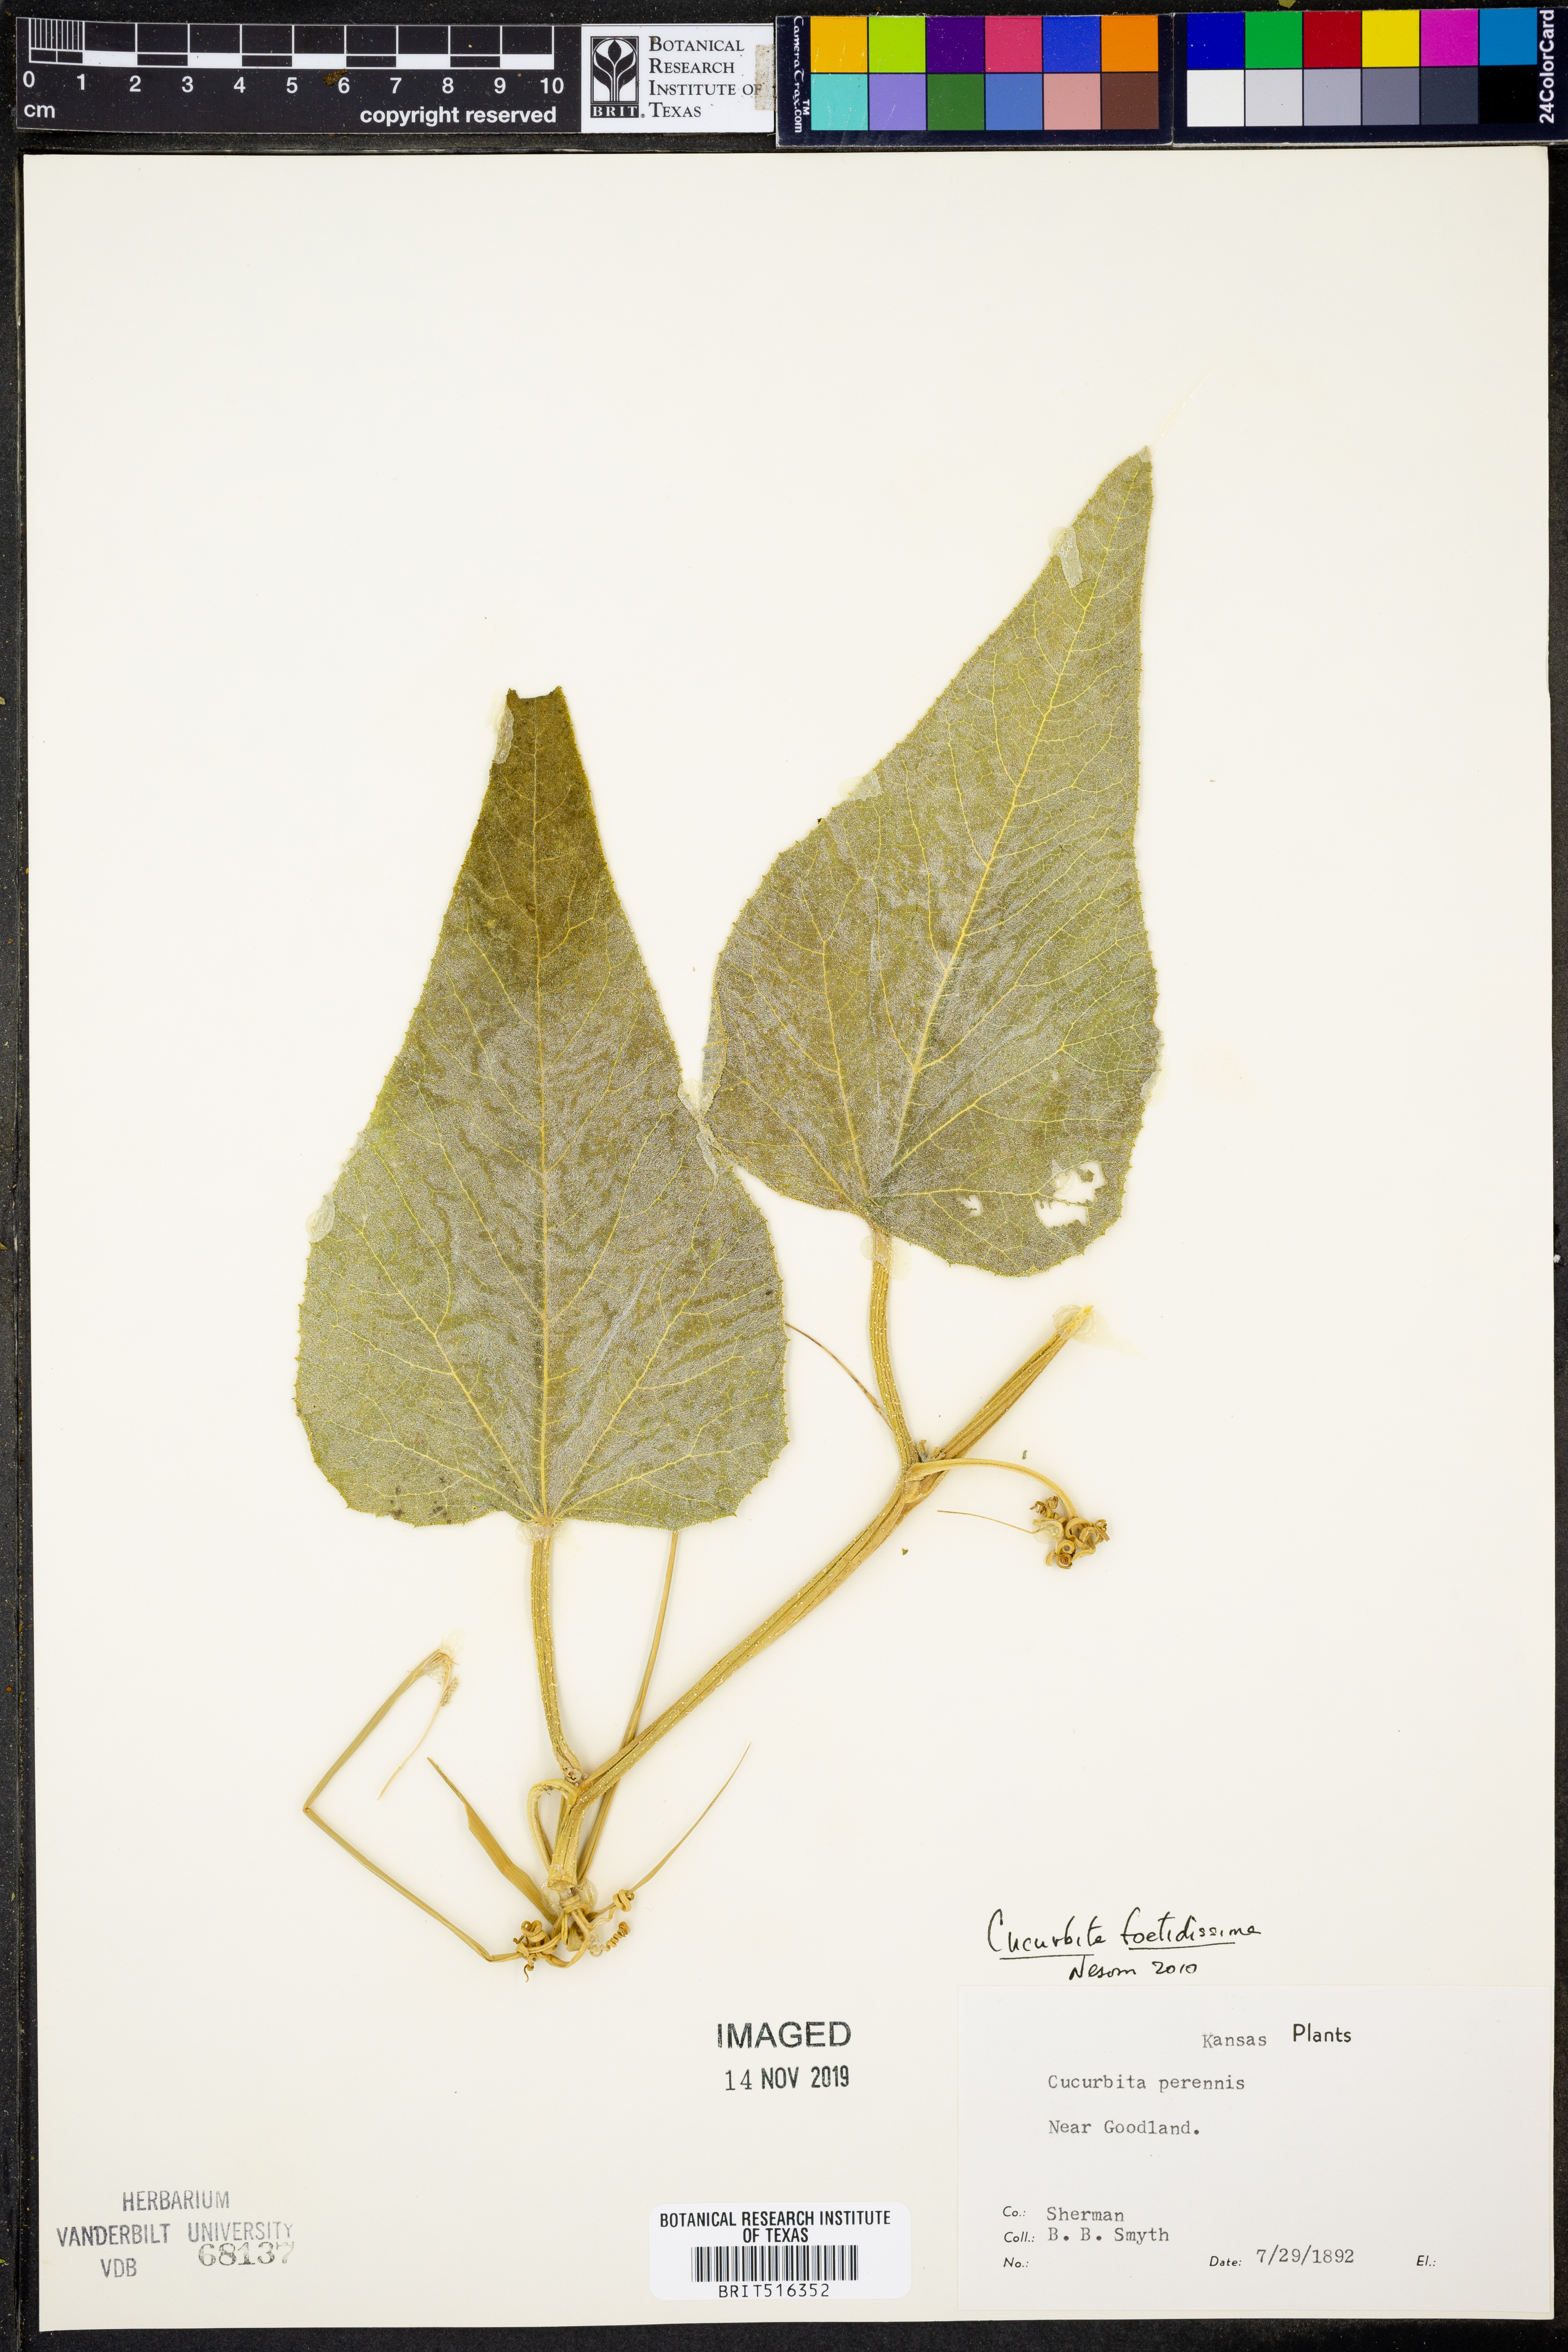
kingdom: Plantae
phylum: Tracheophyta
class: Magnoliopsida
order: Cucurbitales
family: Cucurbitaceae
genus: Cucurbita
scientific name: Cucurbita foetidissima
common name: Buffalo gourd
